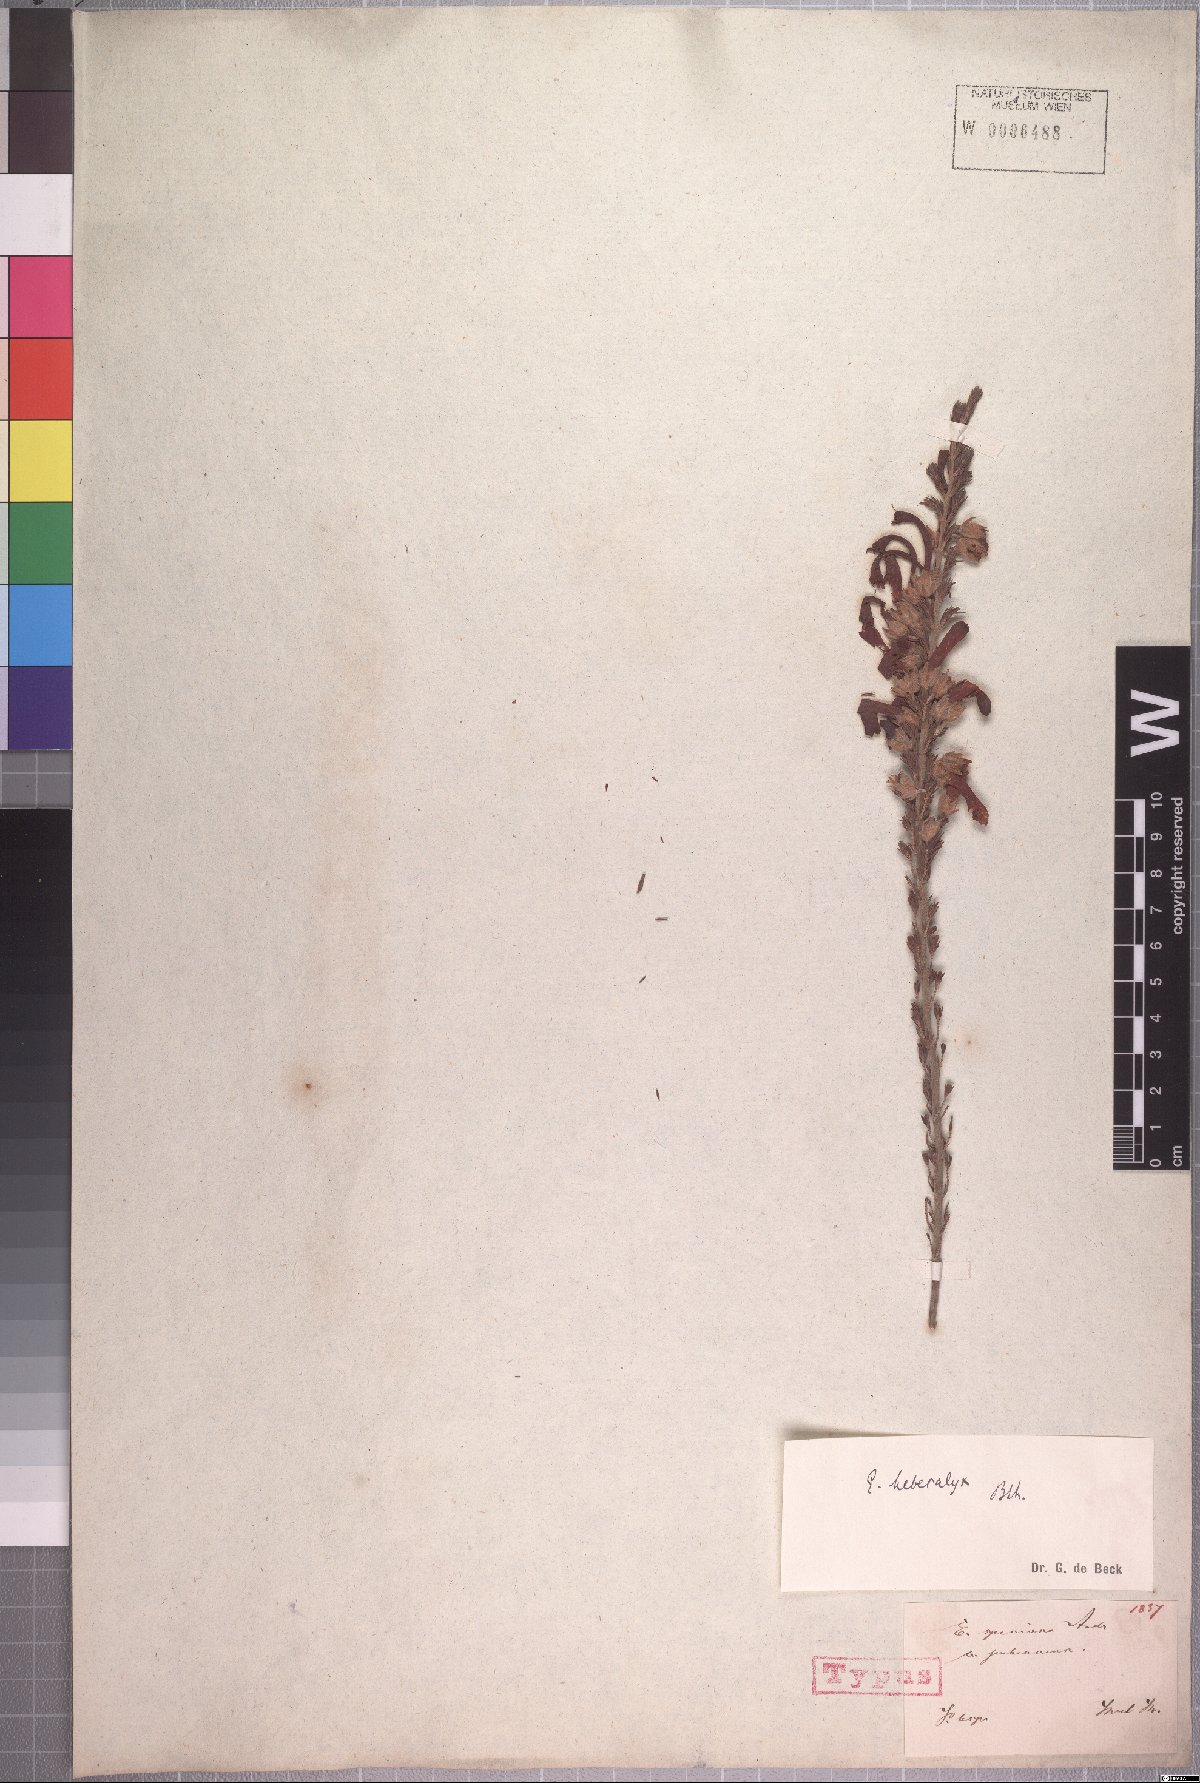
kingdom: Plantae
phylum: Tracheophyta
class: Magnoliopsida
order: Ericales
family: Ericaceae
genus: Erica
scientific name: Erica discolor
